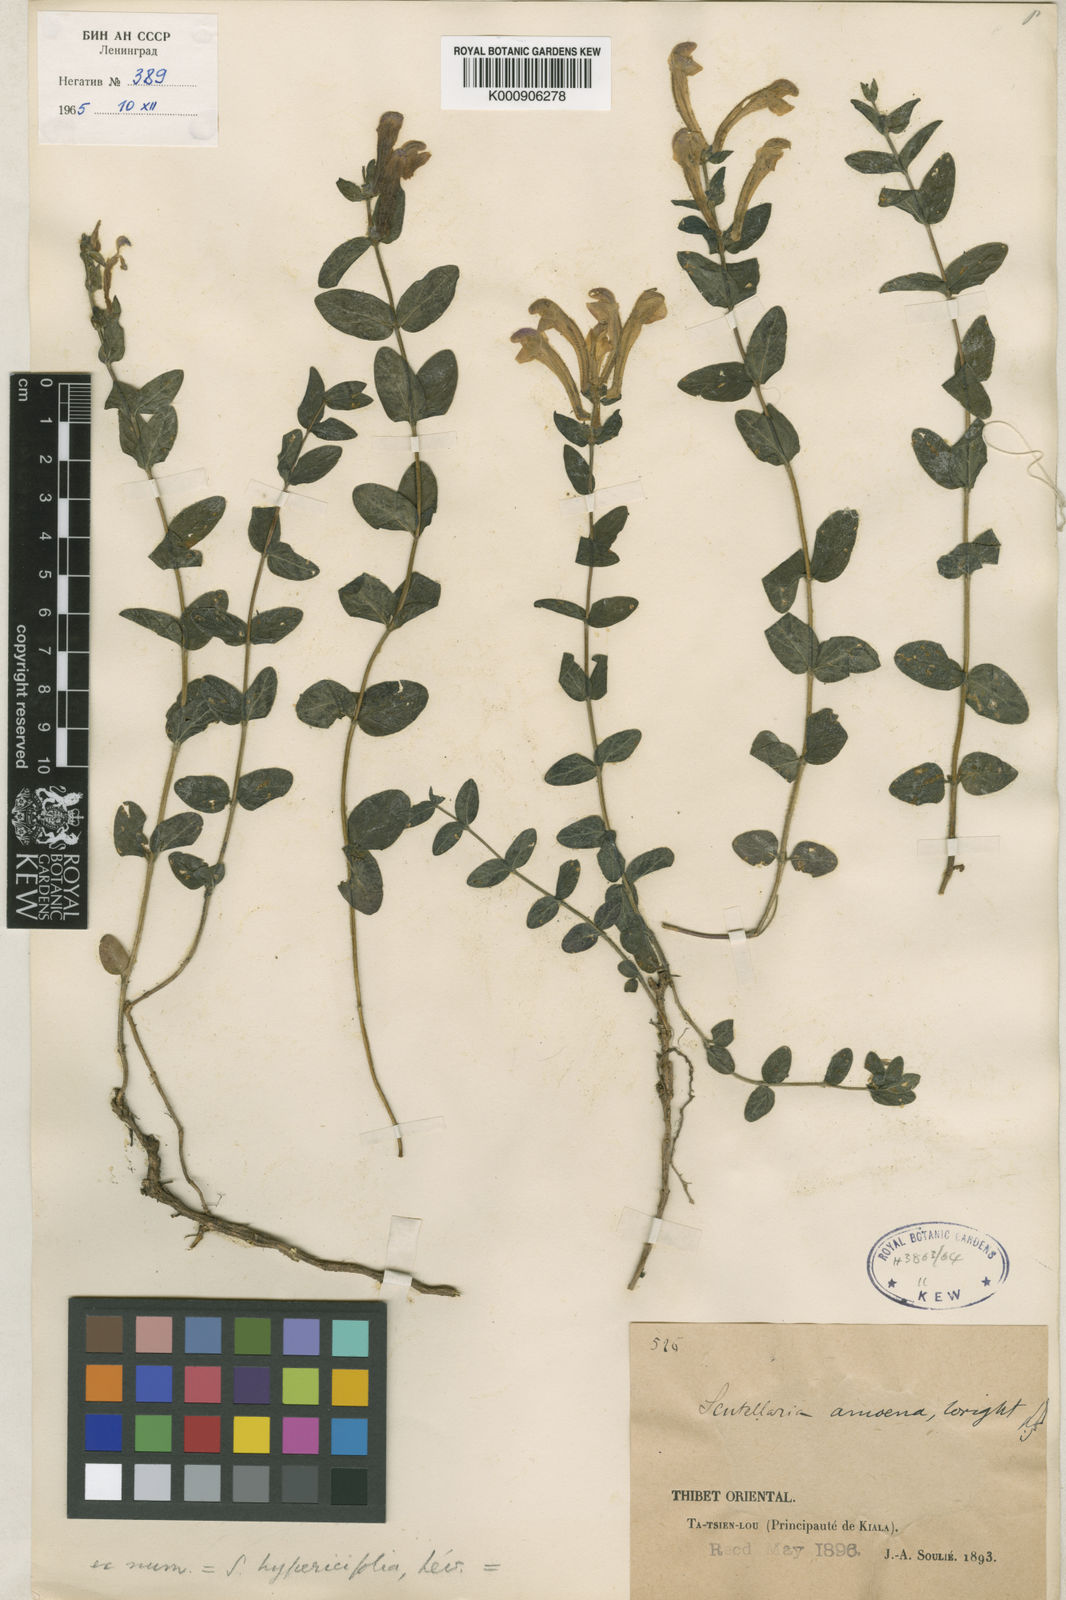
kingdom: Plantae
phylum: Tracheophyta
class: Magnoliopsida
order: Lamiales
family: Lamiaceae
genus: Scutellaria
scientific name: Scutellaria amoena
